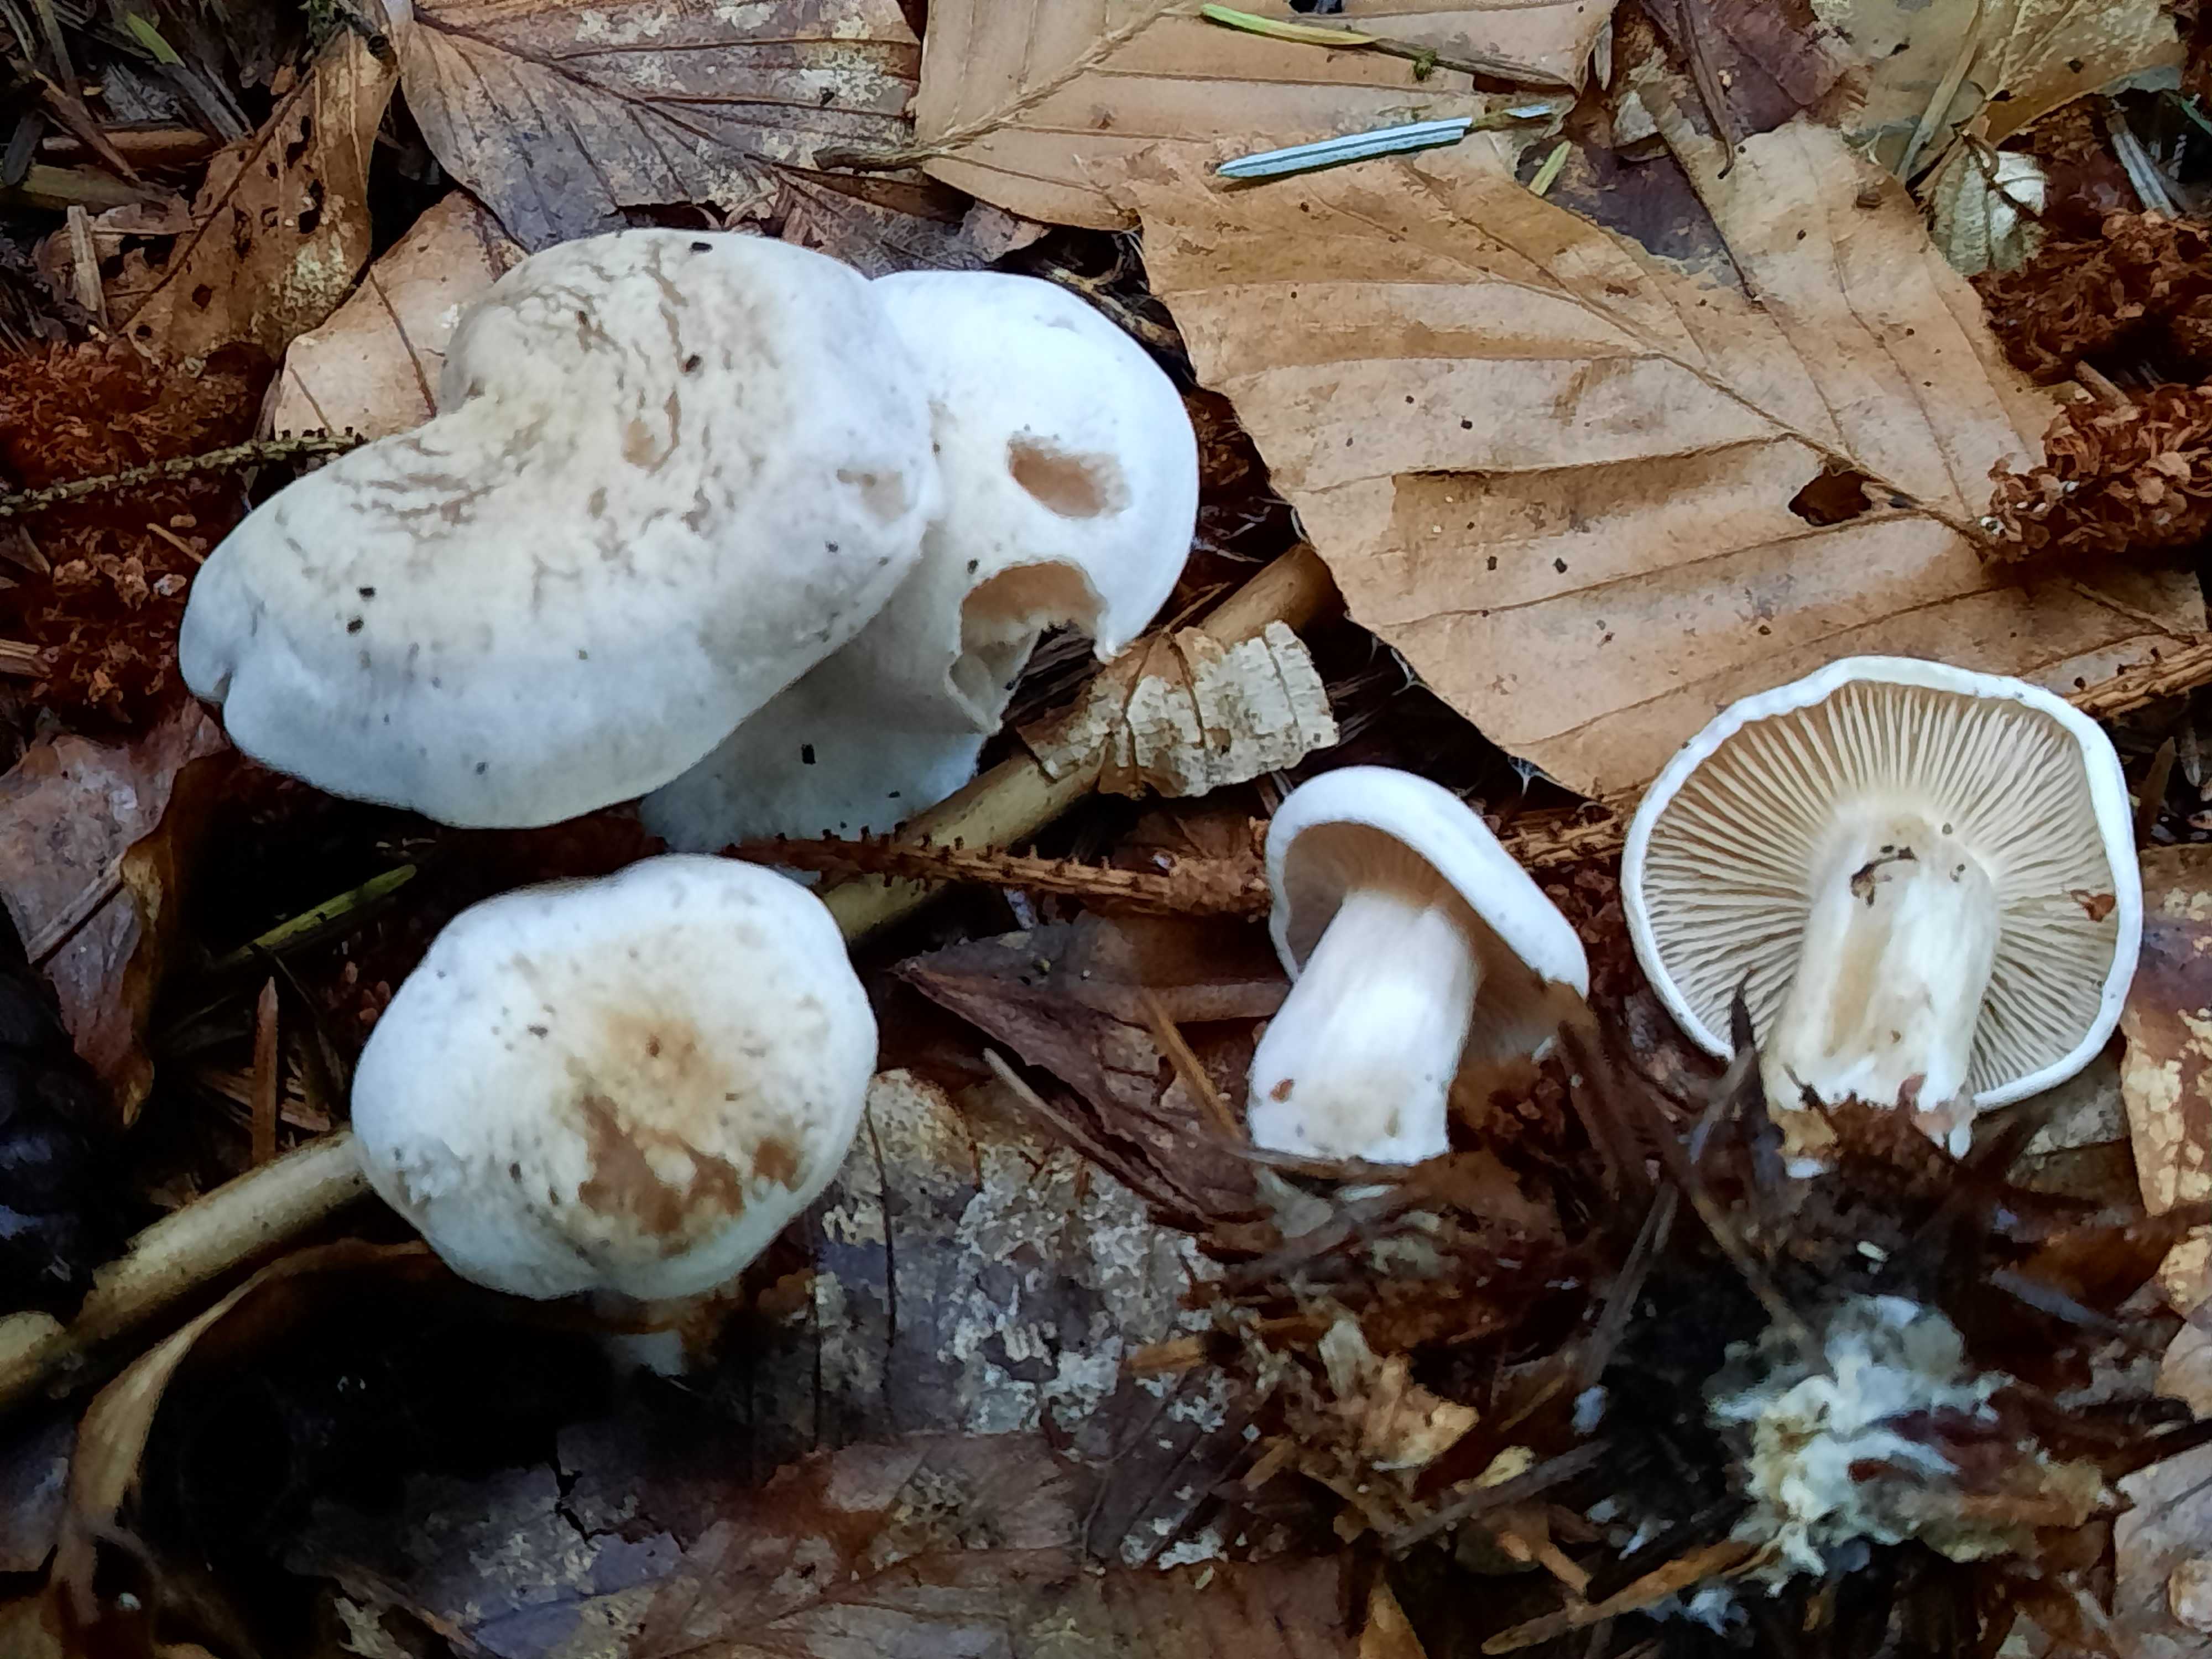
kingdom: Fungi
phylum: Basidiomycota
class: Agaricomycetes
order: Agaricales
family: Tricholomataceae
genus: Clitocybe
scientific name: Clitocybe phyllophila
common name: løv-tragthat
